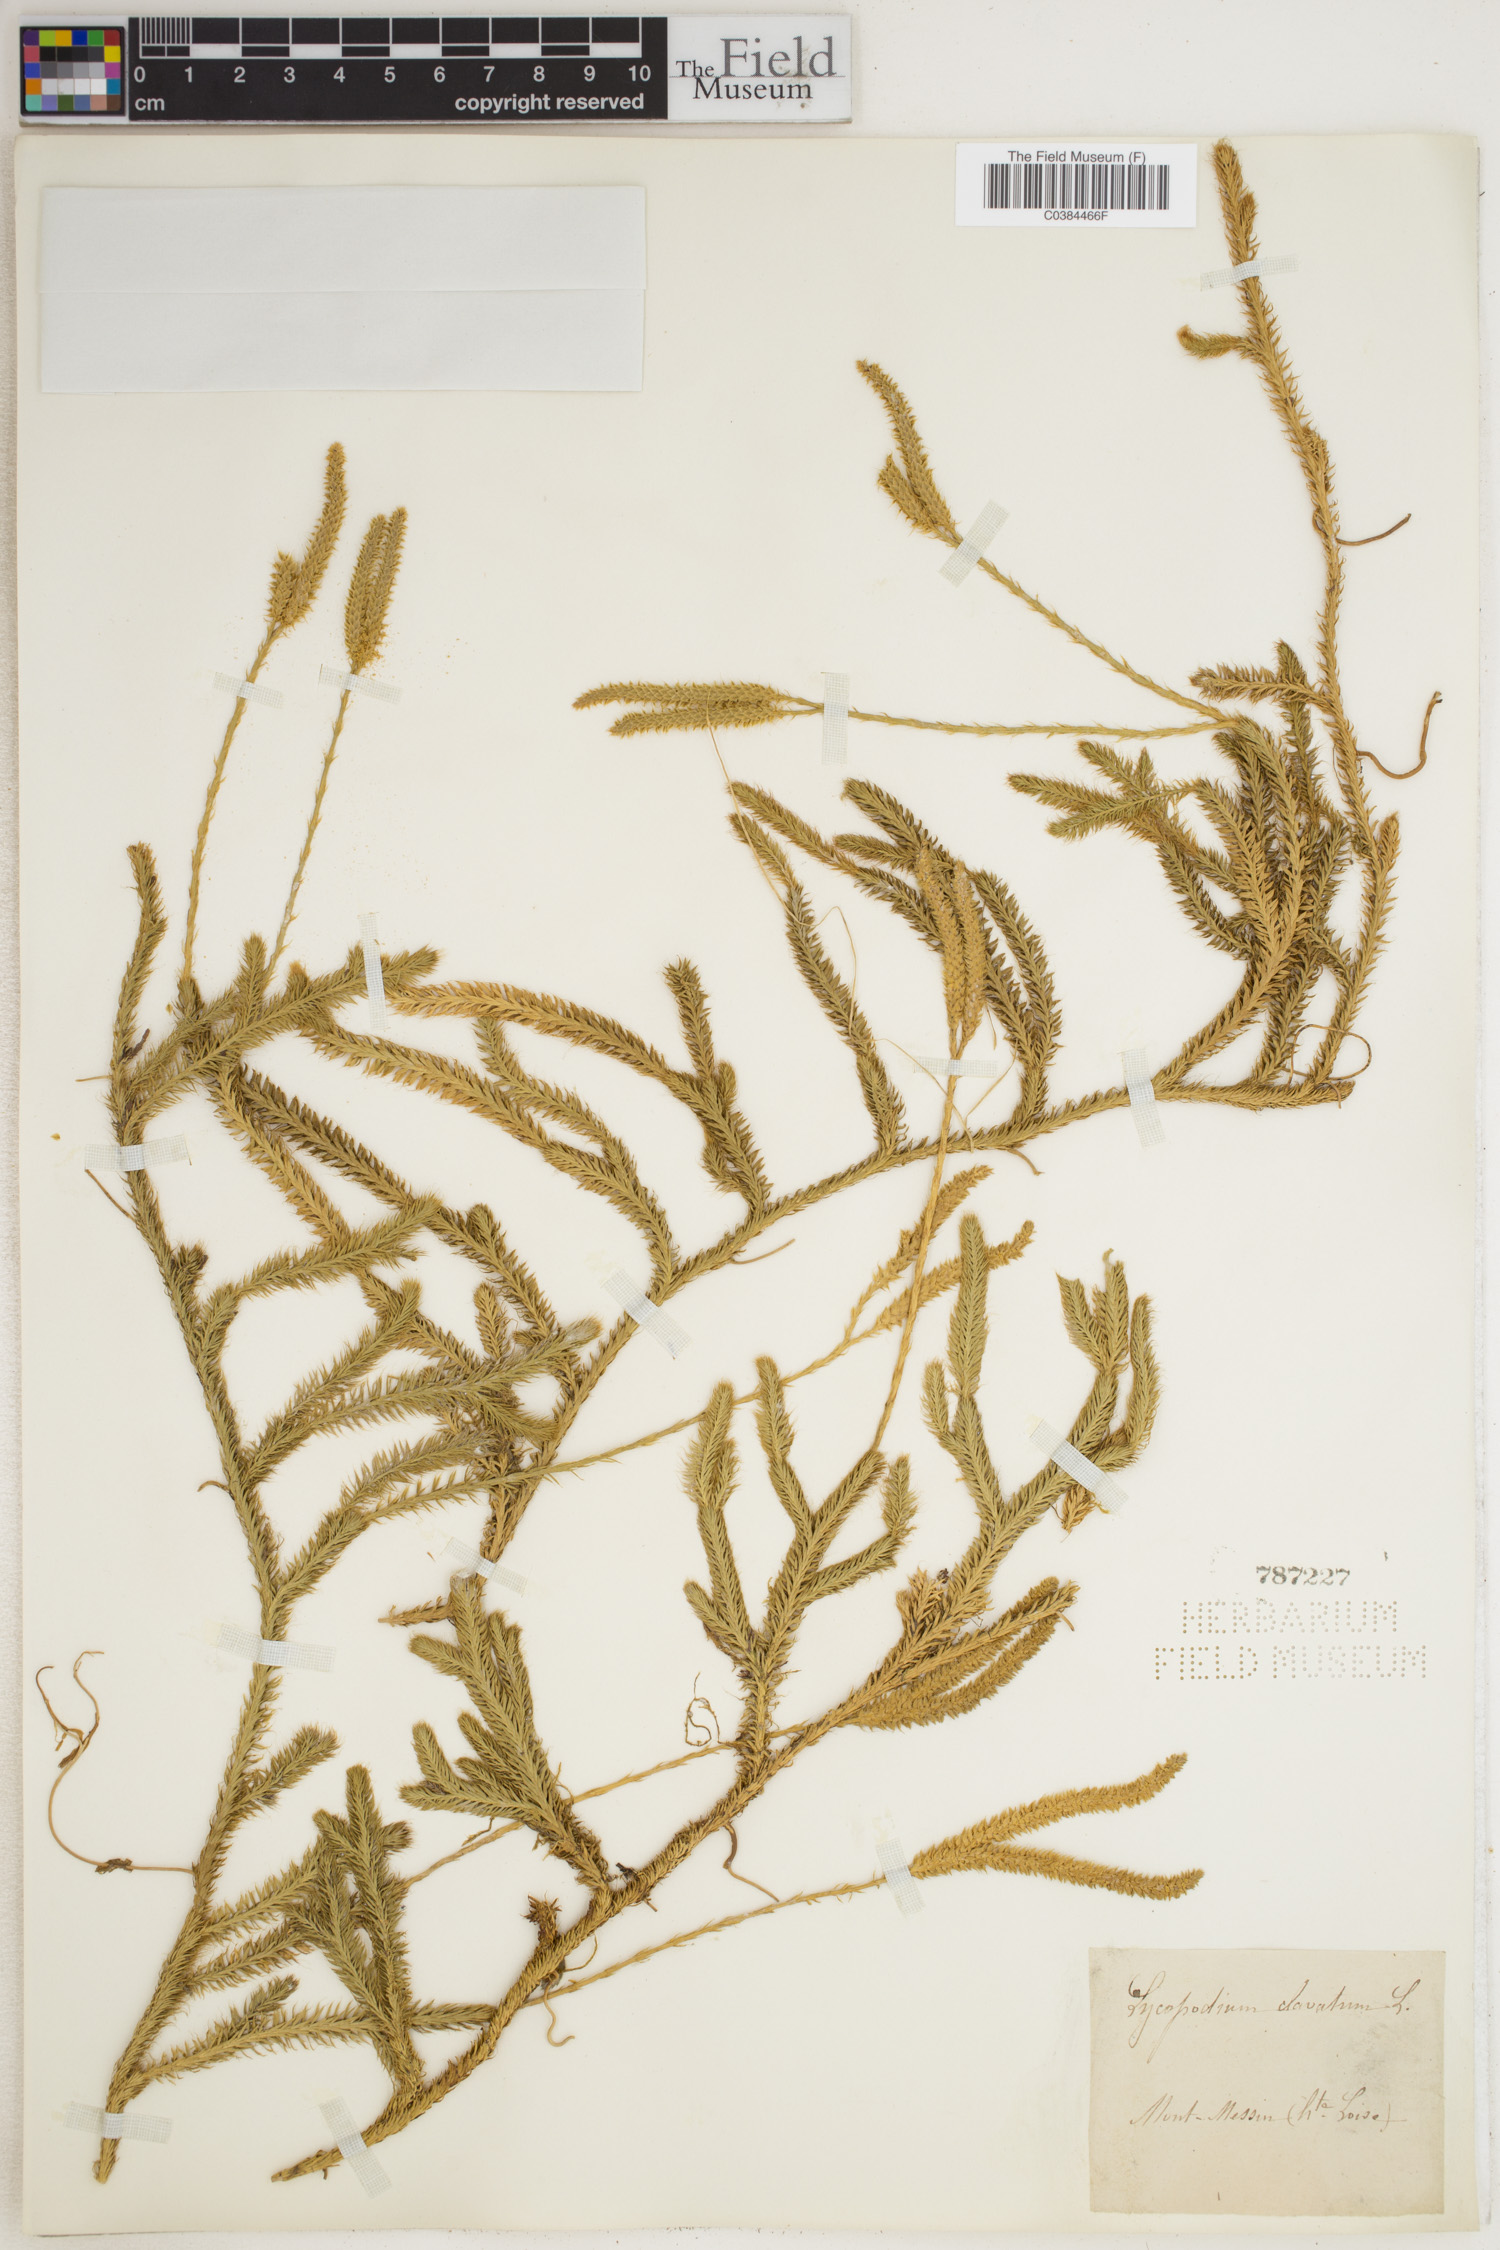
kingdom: Plantae
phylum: Tracheophyta
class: Lycopodiopsida
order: Lycopodiales
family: Lycopodiaceae
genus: Lycopodium
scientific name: Lycopodium clavatum
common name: Stag's-horn clubmoss
